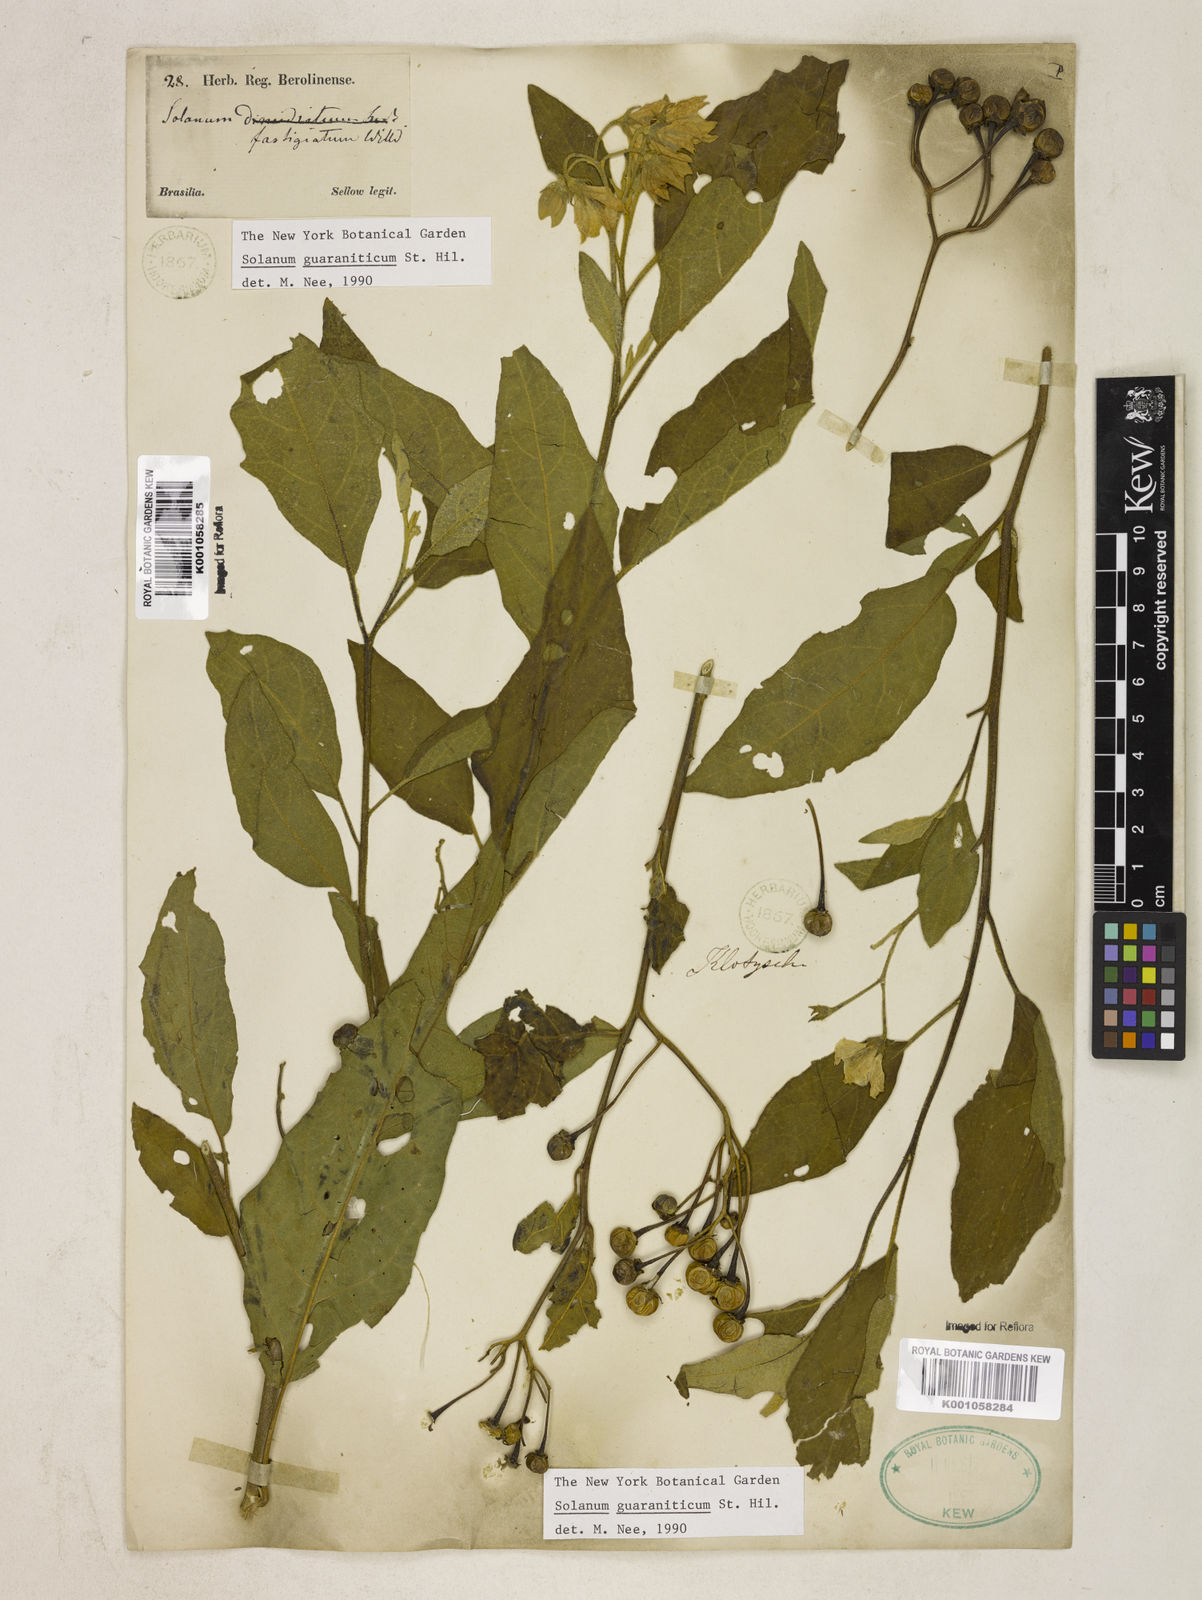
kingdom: Plantae
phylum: Tracheophyta
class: Magnoliopsida
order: Solanales
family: Solanaceae
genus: Solanum
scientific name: Solanum guaraniticum
